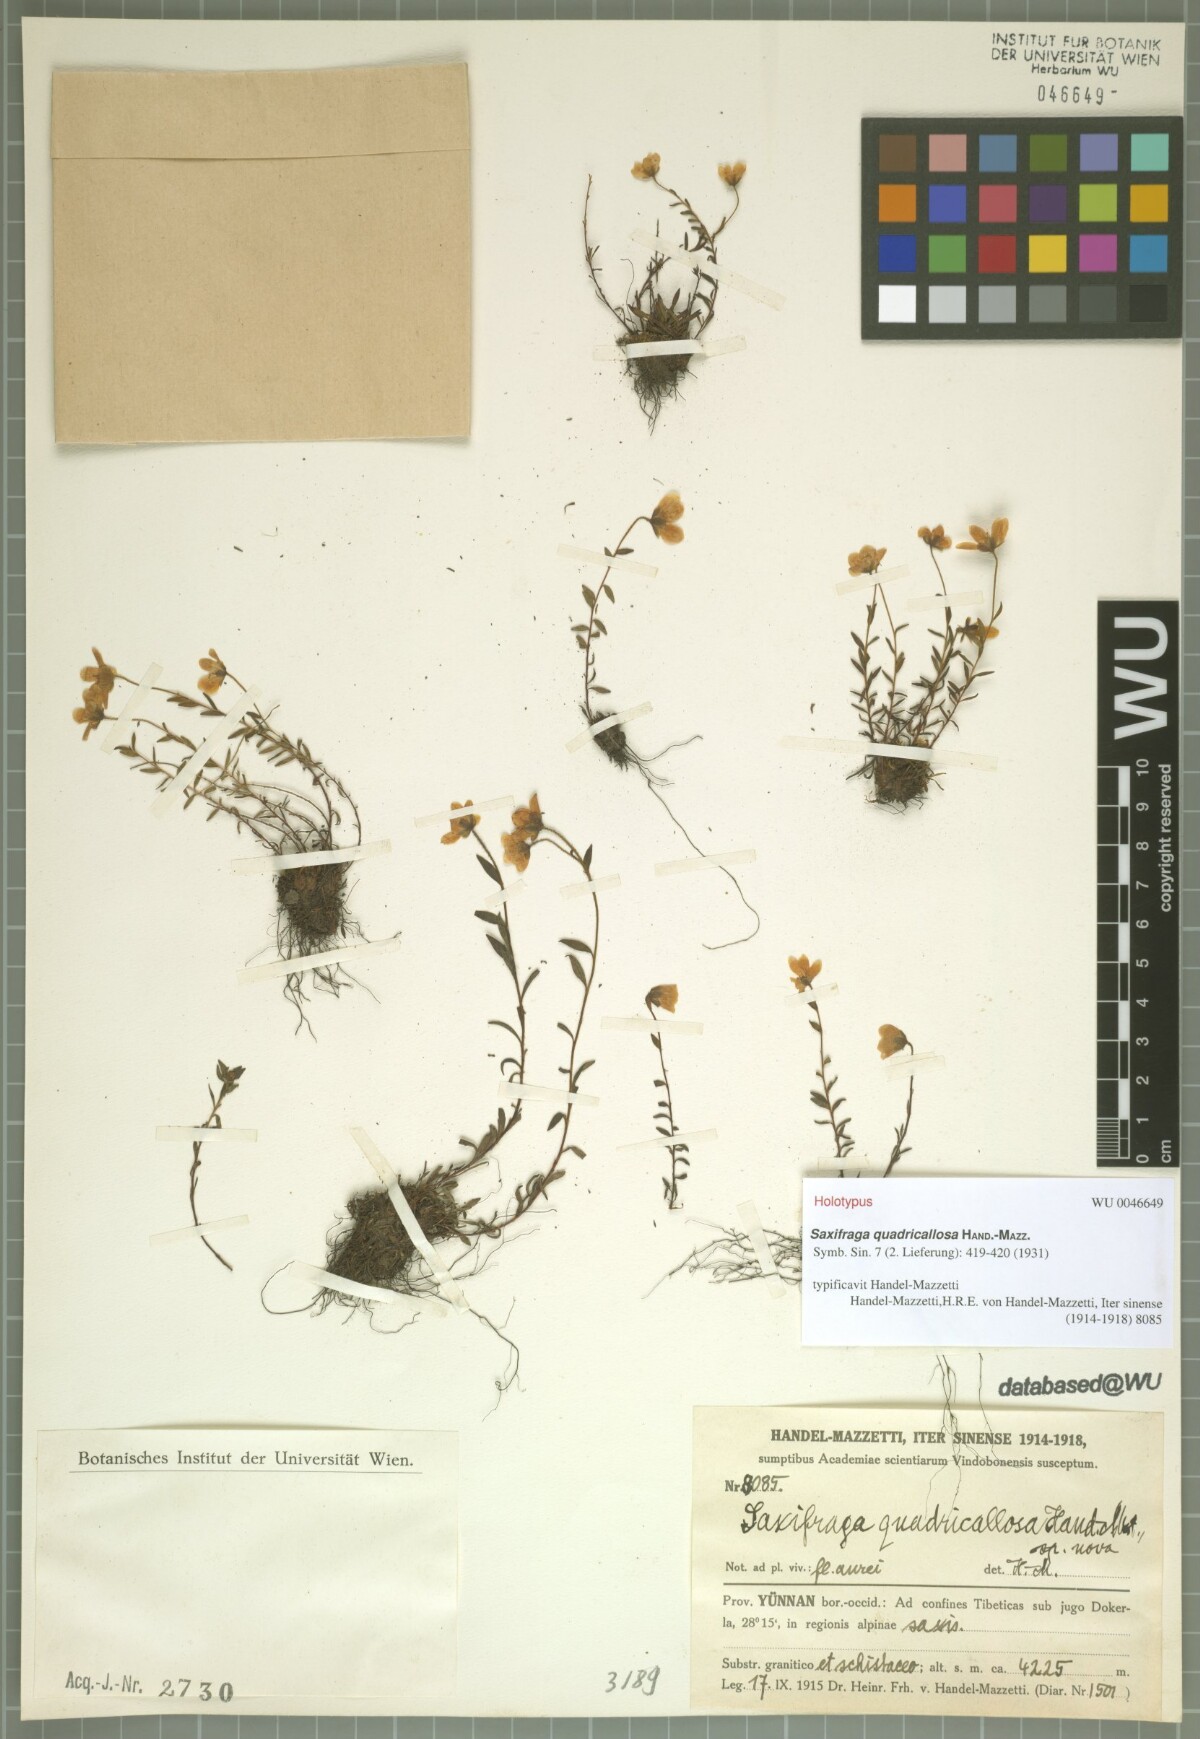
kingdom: Plantae
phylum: Tracheophyta
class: Magnoliopsida
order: Saxifragales
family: Saxifragaceae
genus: Saxifraga
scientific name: Saxifraga tsangchanensis
